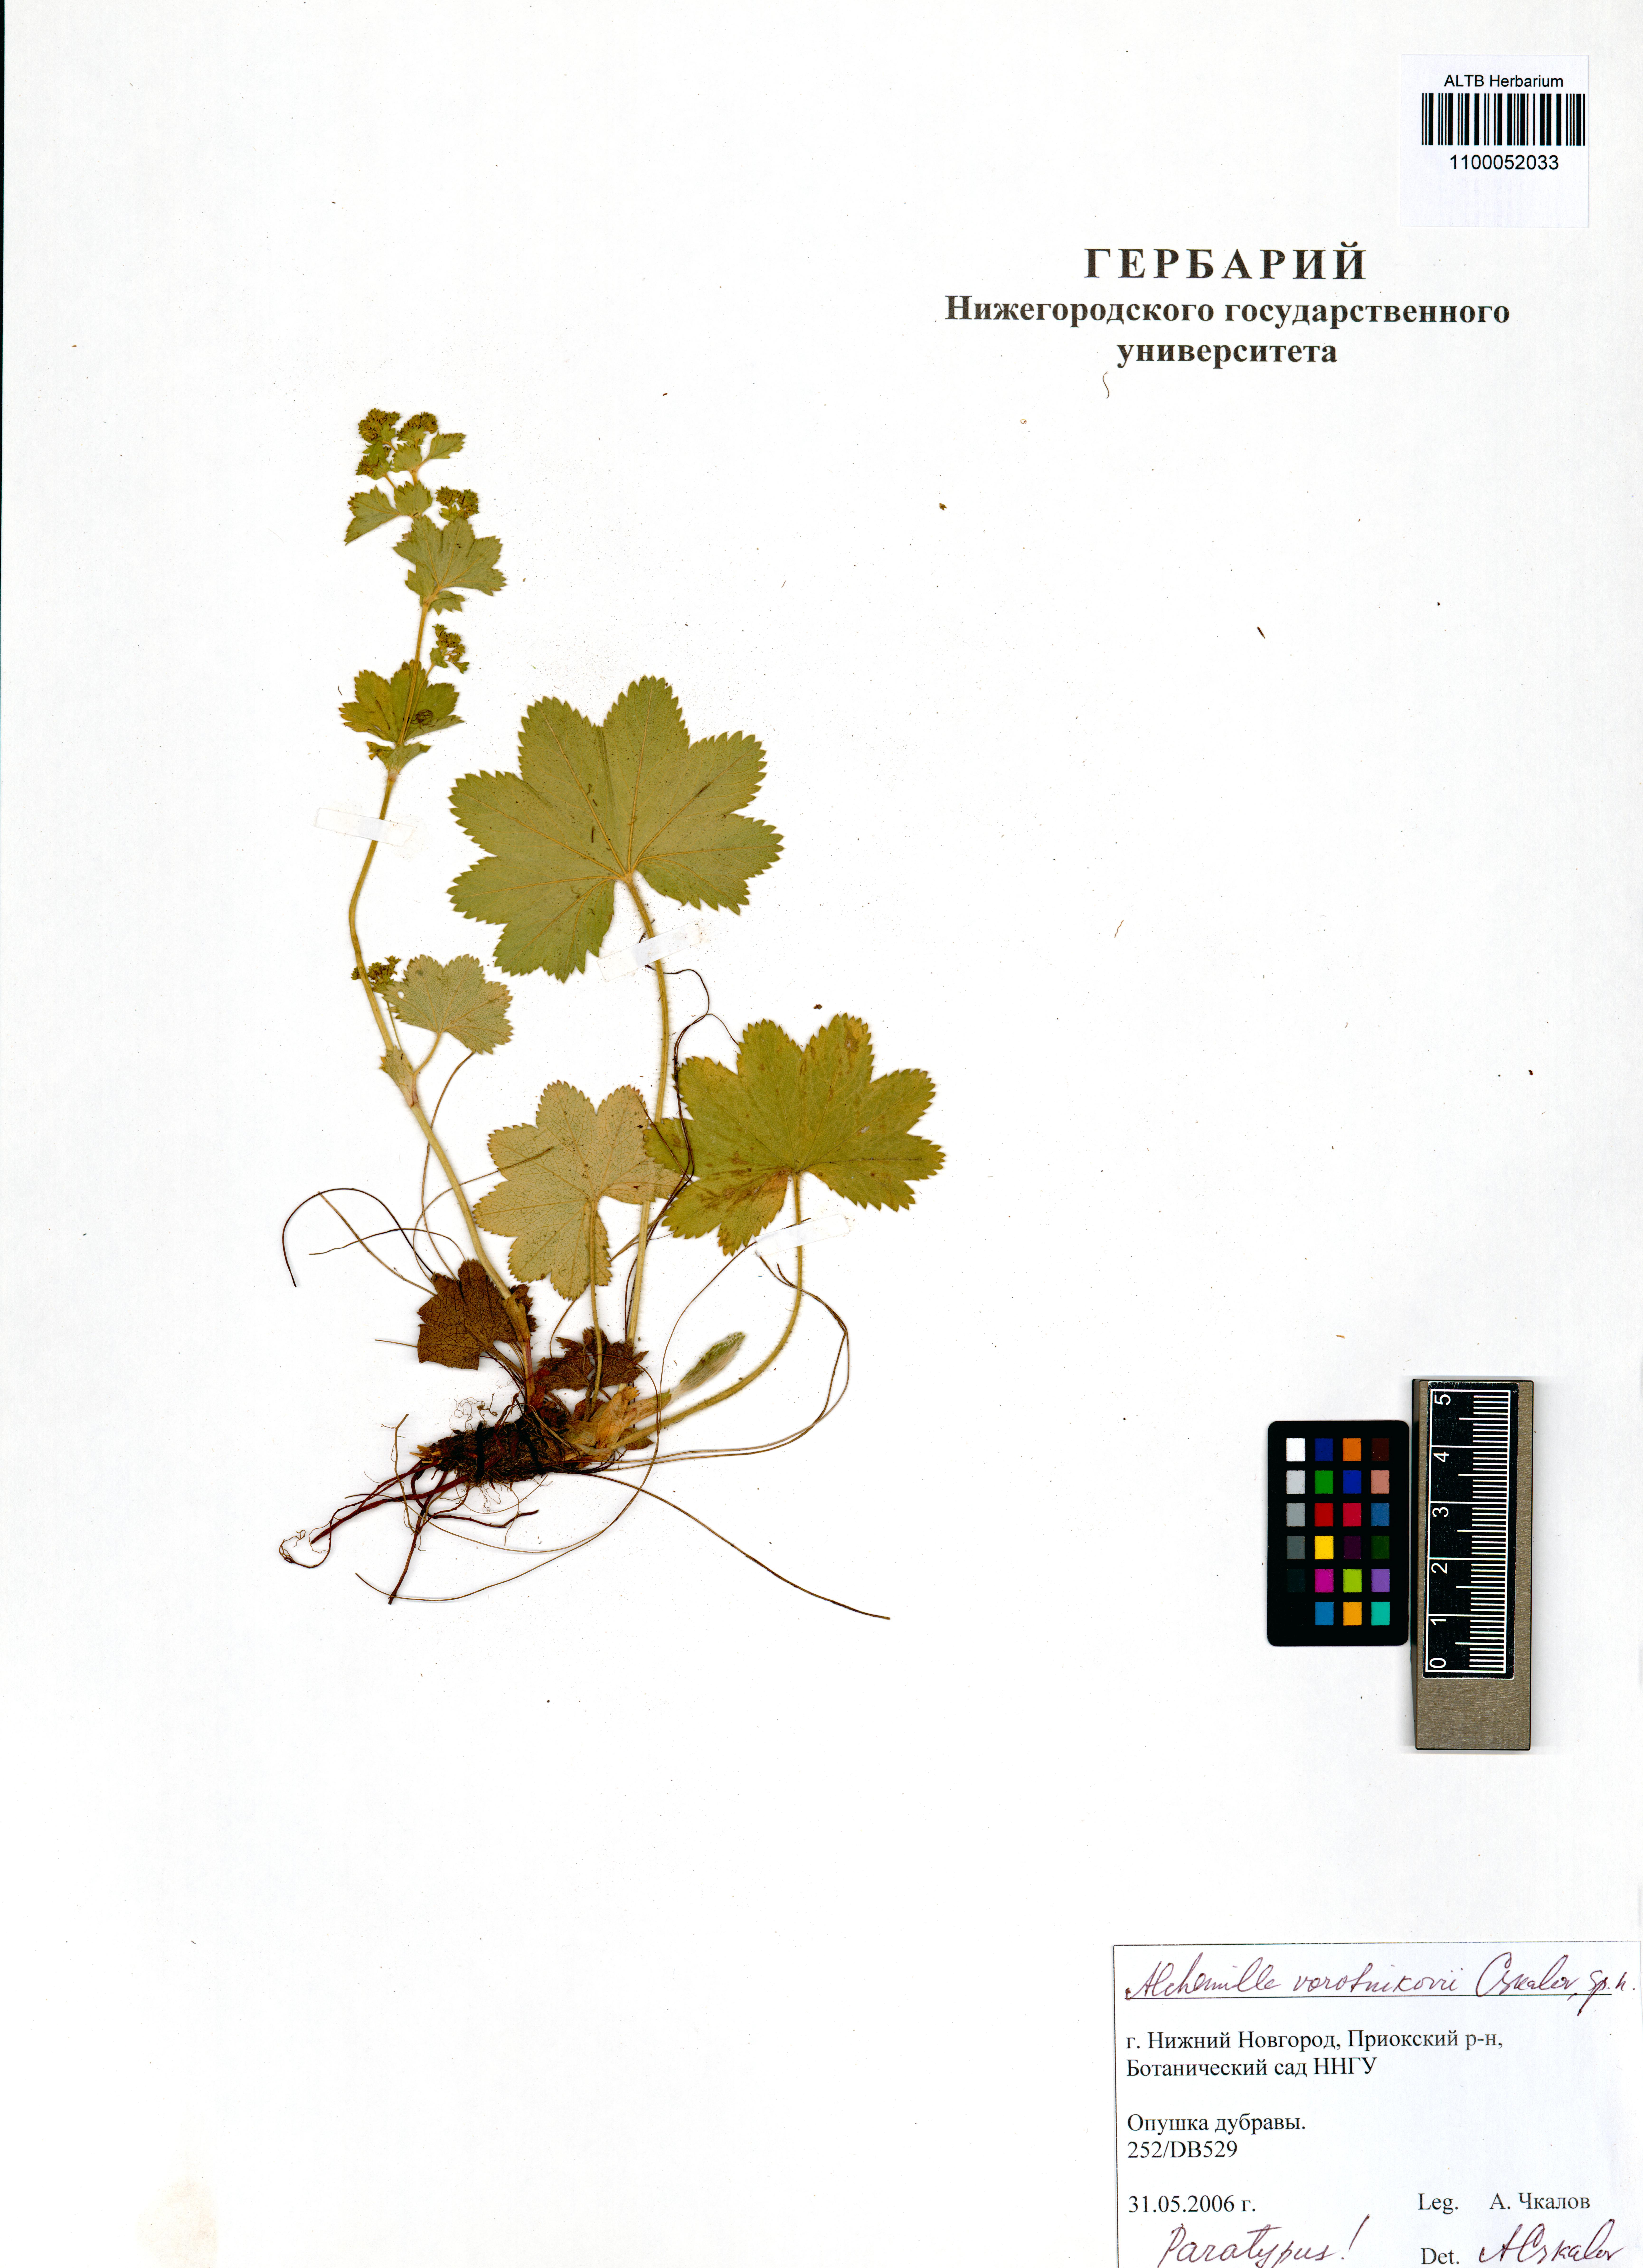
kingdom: Plantae
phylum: Tracheophyta
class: Magnoliopsida
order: Rosales
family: Rosaceae
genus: Alchemilla
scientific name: Alchemilla vorotnikovii
